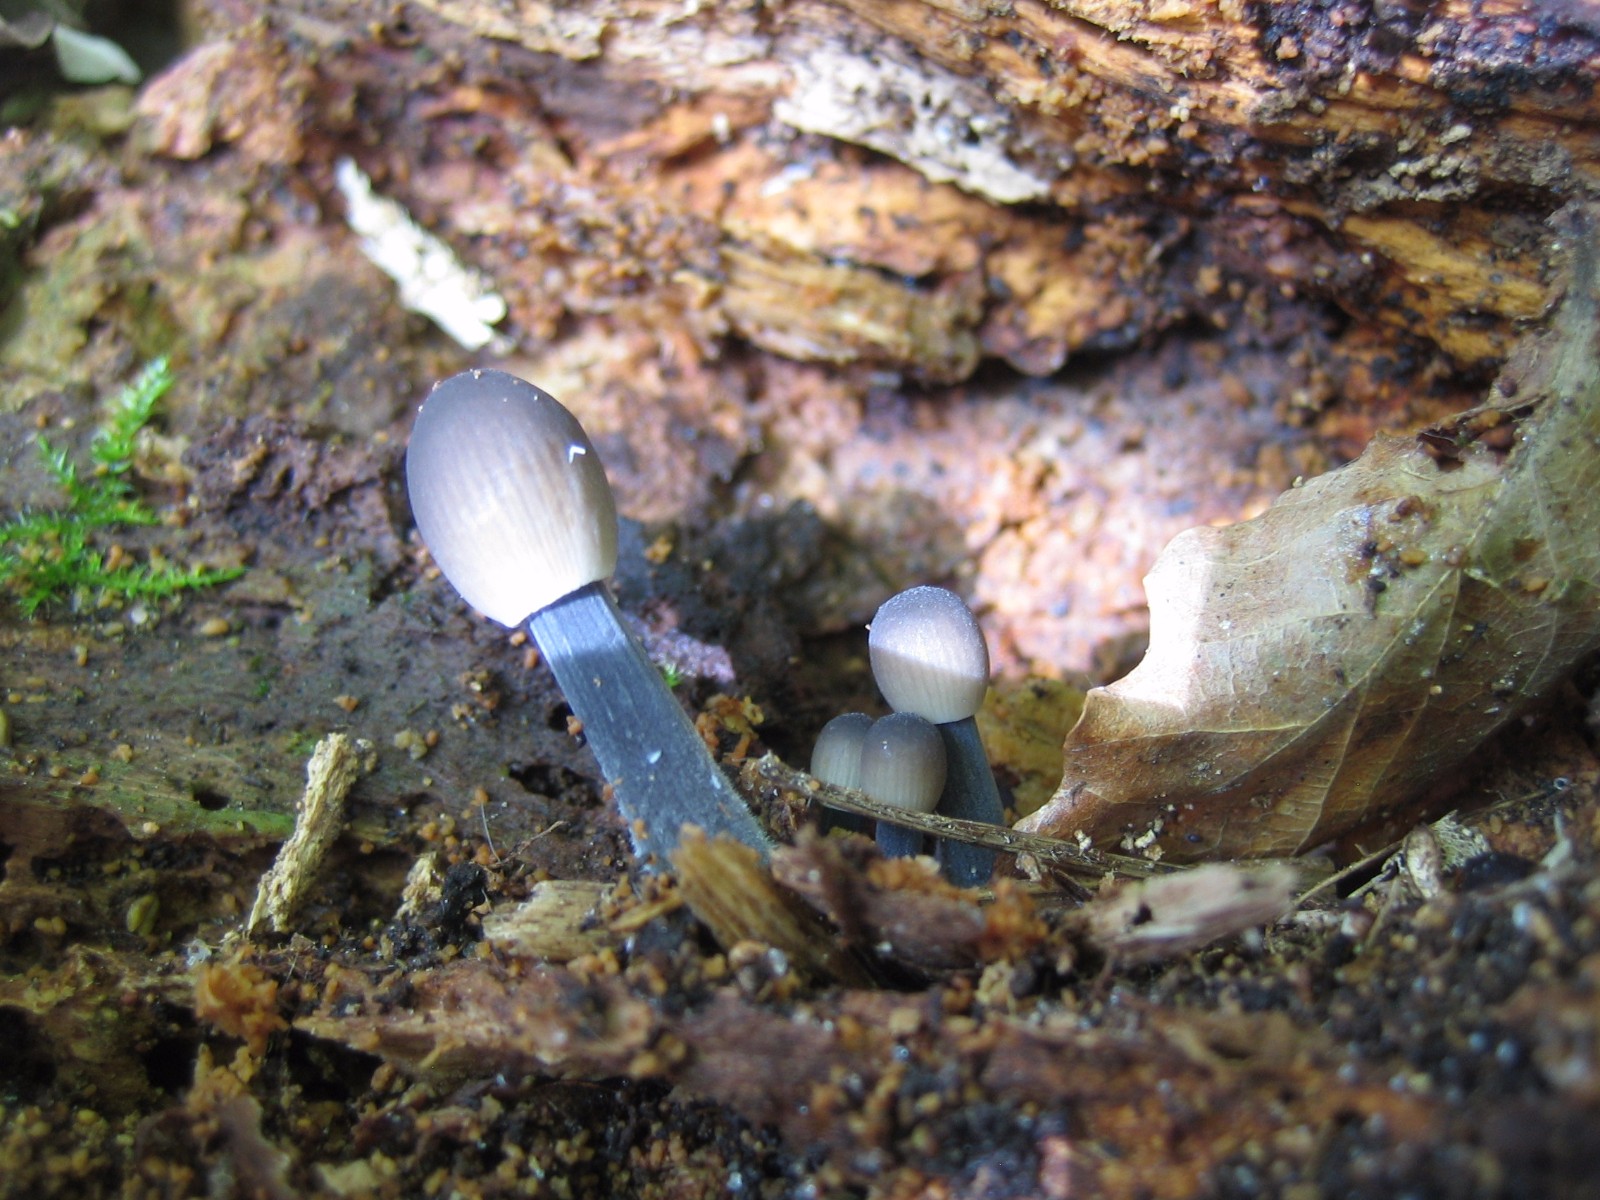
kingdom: Fungi
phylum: Basidiomycota
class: Agaricomycetes
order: Agaricales
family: Mycenaceae
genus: Mycena
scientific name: Mycena
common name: huesvamp
